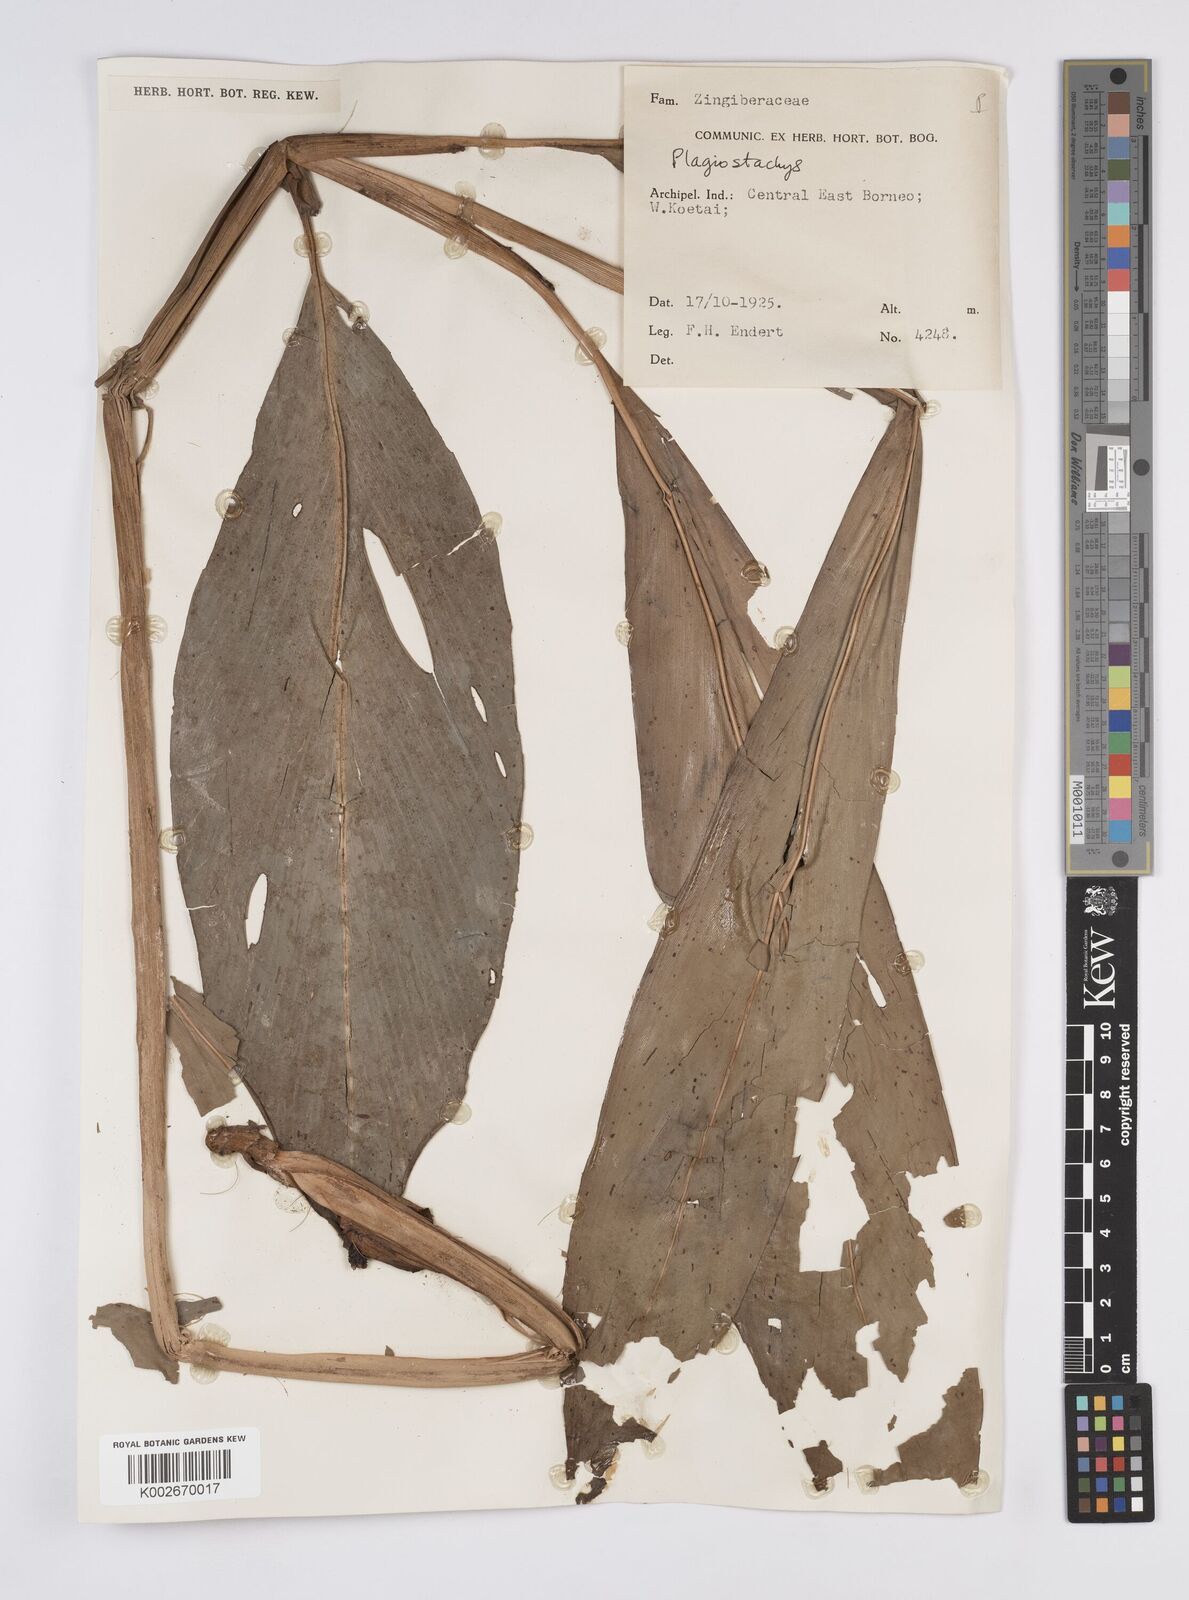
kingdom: Plantae
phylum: Tracheophyta
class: Liliopsida
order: Zingiberales
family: Zingiberaceae
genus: Plagiostachys
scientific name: Plagiostachys
